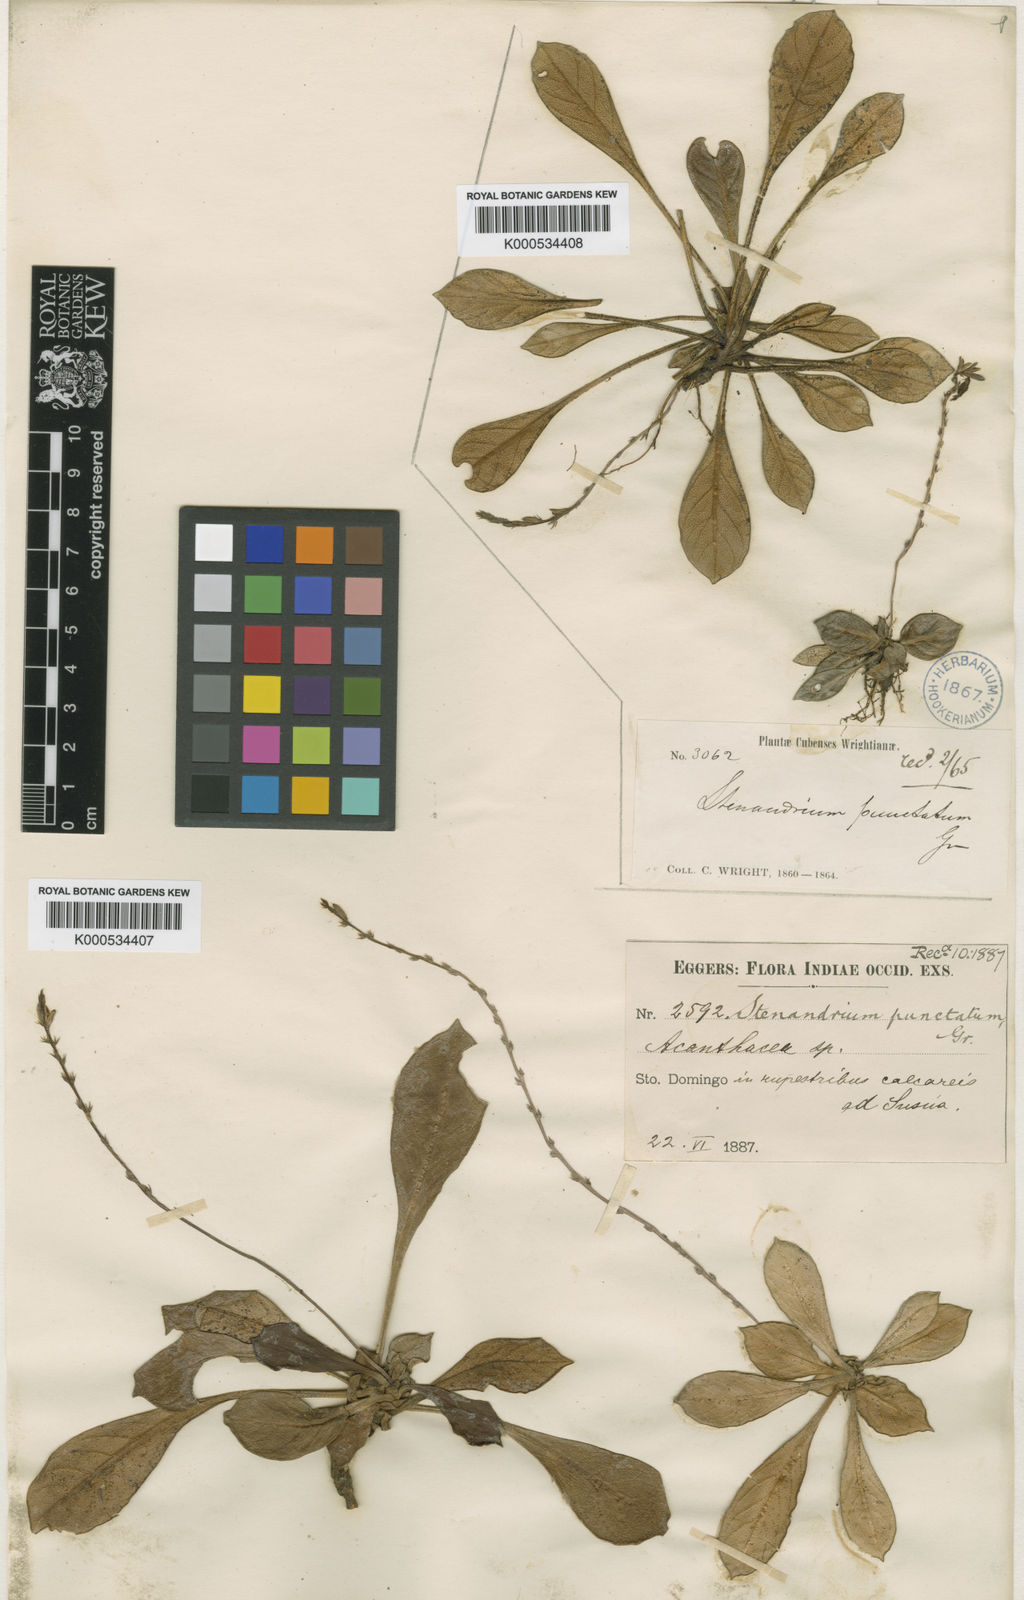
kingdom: Plantae
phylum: Tracheophyta
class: Magnoliopsida
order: Lamiales
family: Acanthaceae
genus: Stenandrium
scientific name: Stenandrium scabrosum
